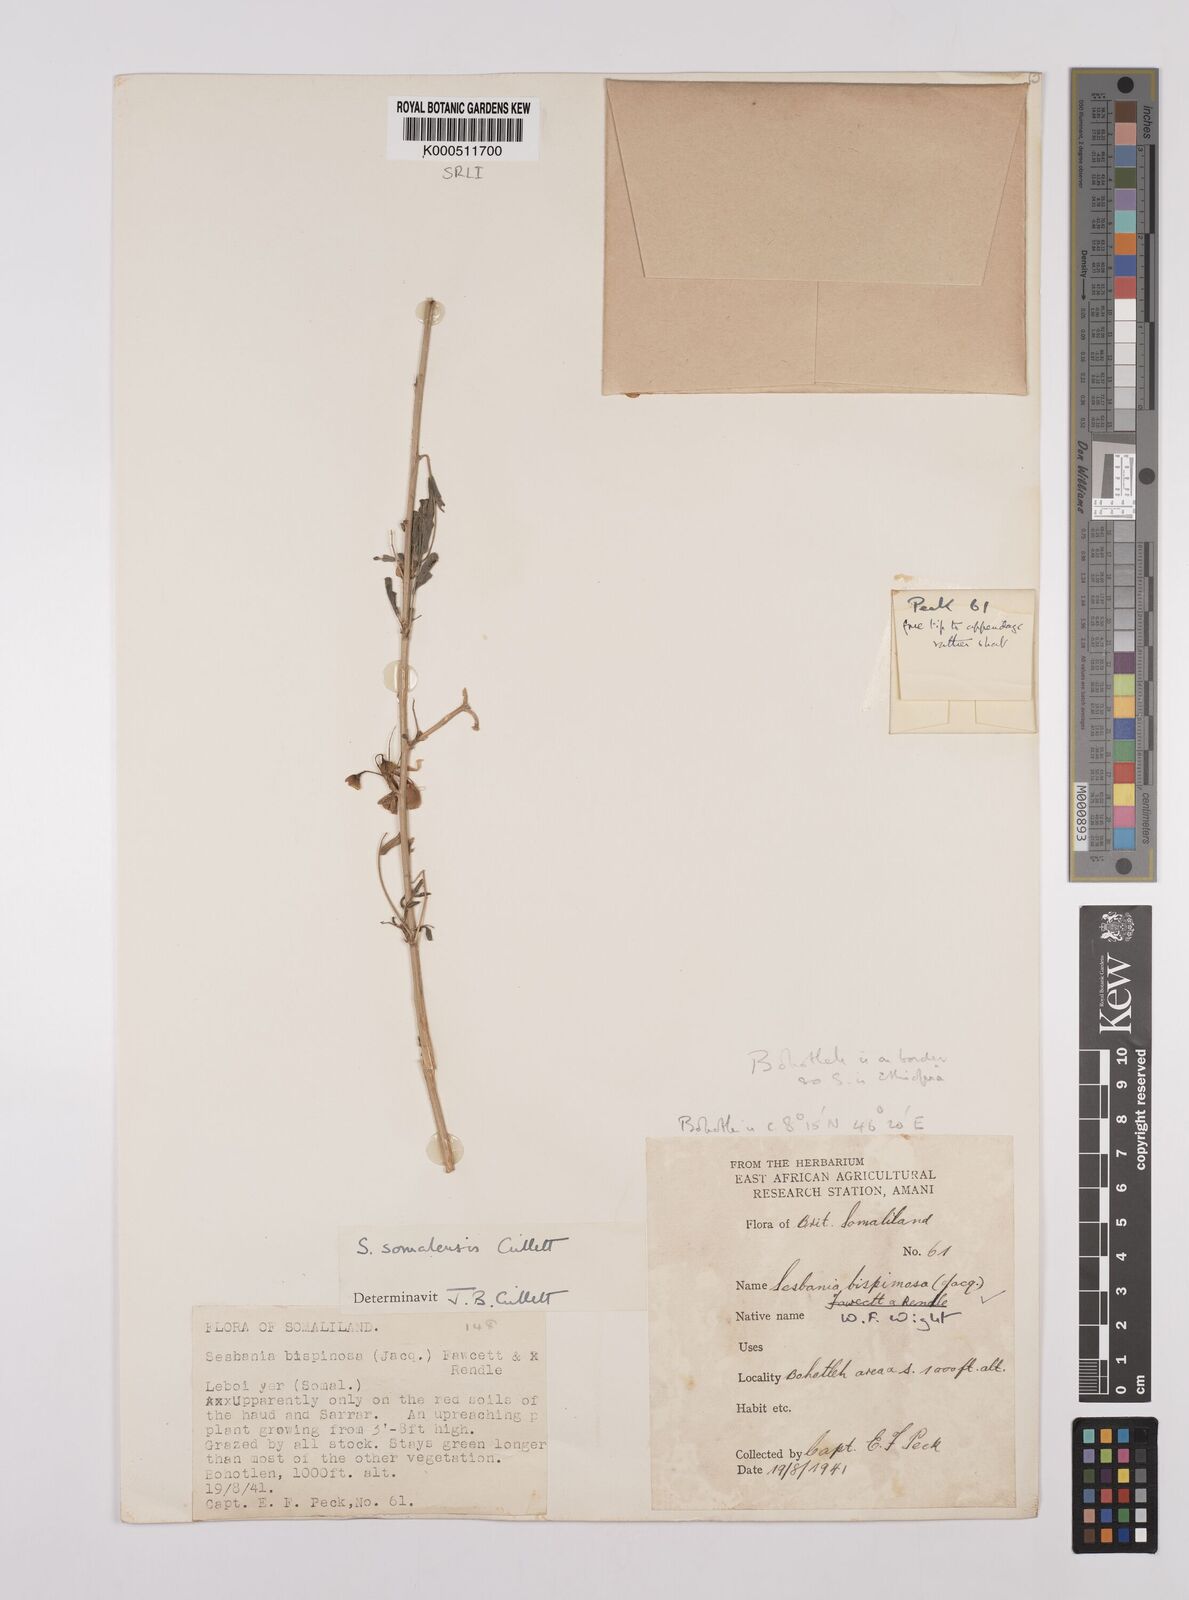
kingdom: Plantae
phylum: Tracheophyta
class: Magnoliopsida
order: Fabales
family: Fabaceae
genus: Sesbania
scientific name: Sesbania somalensis
